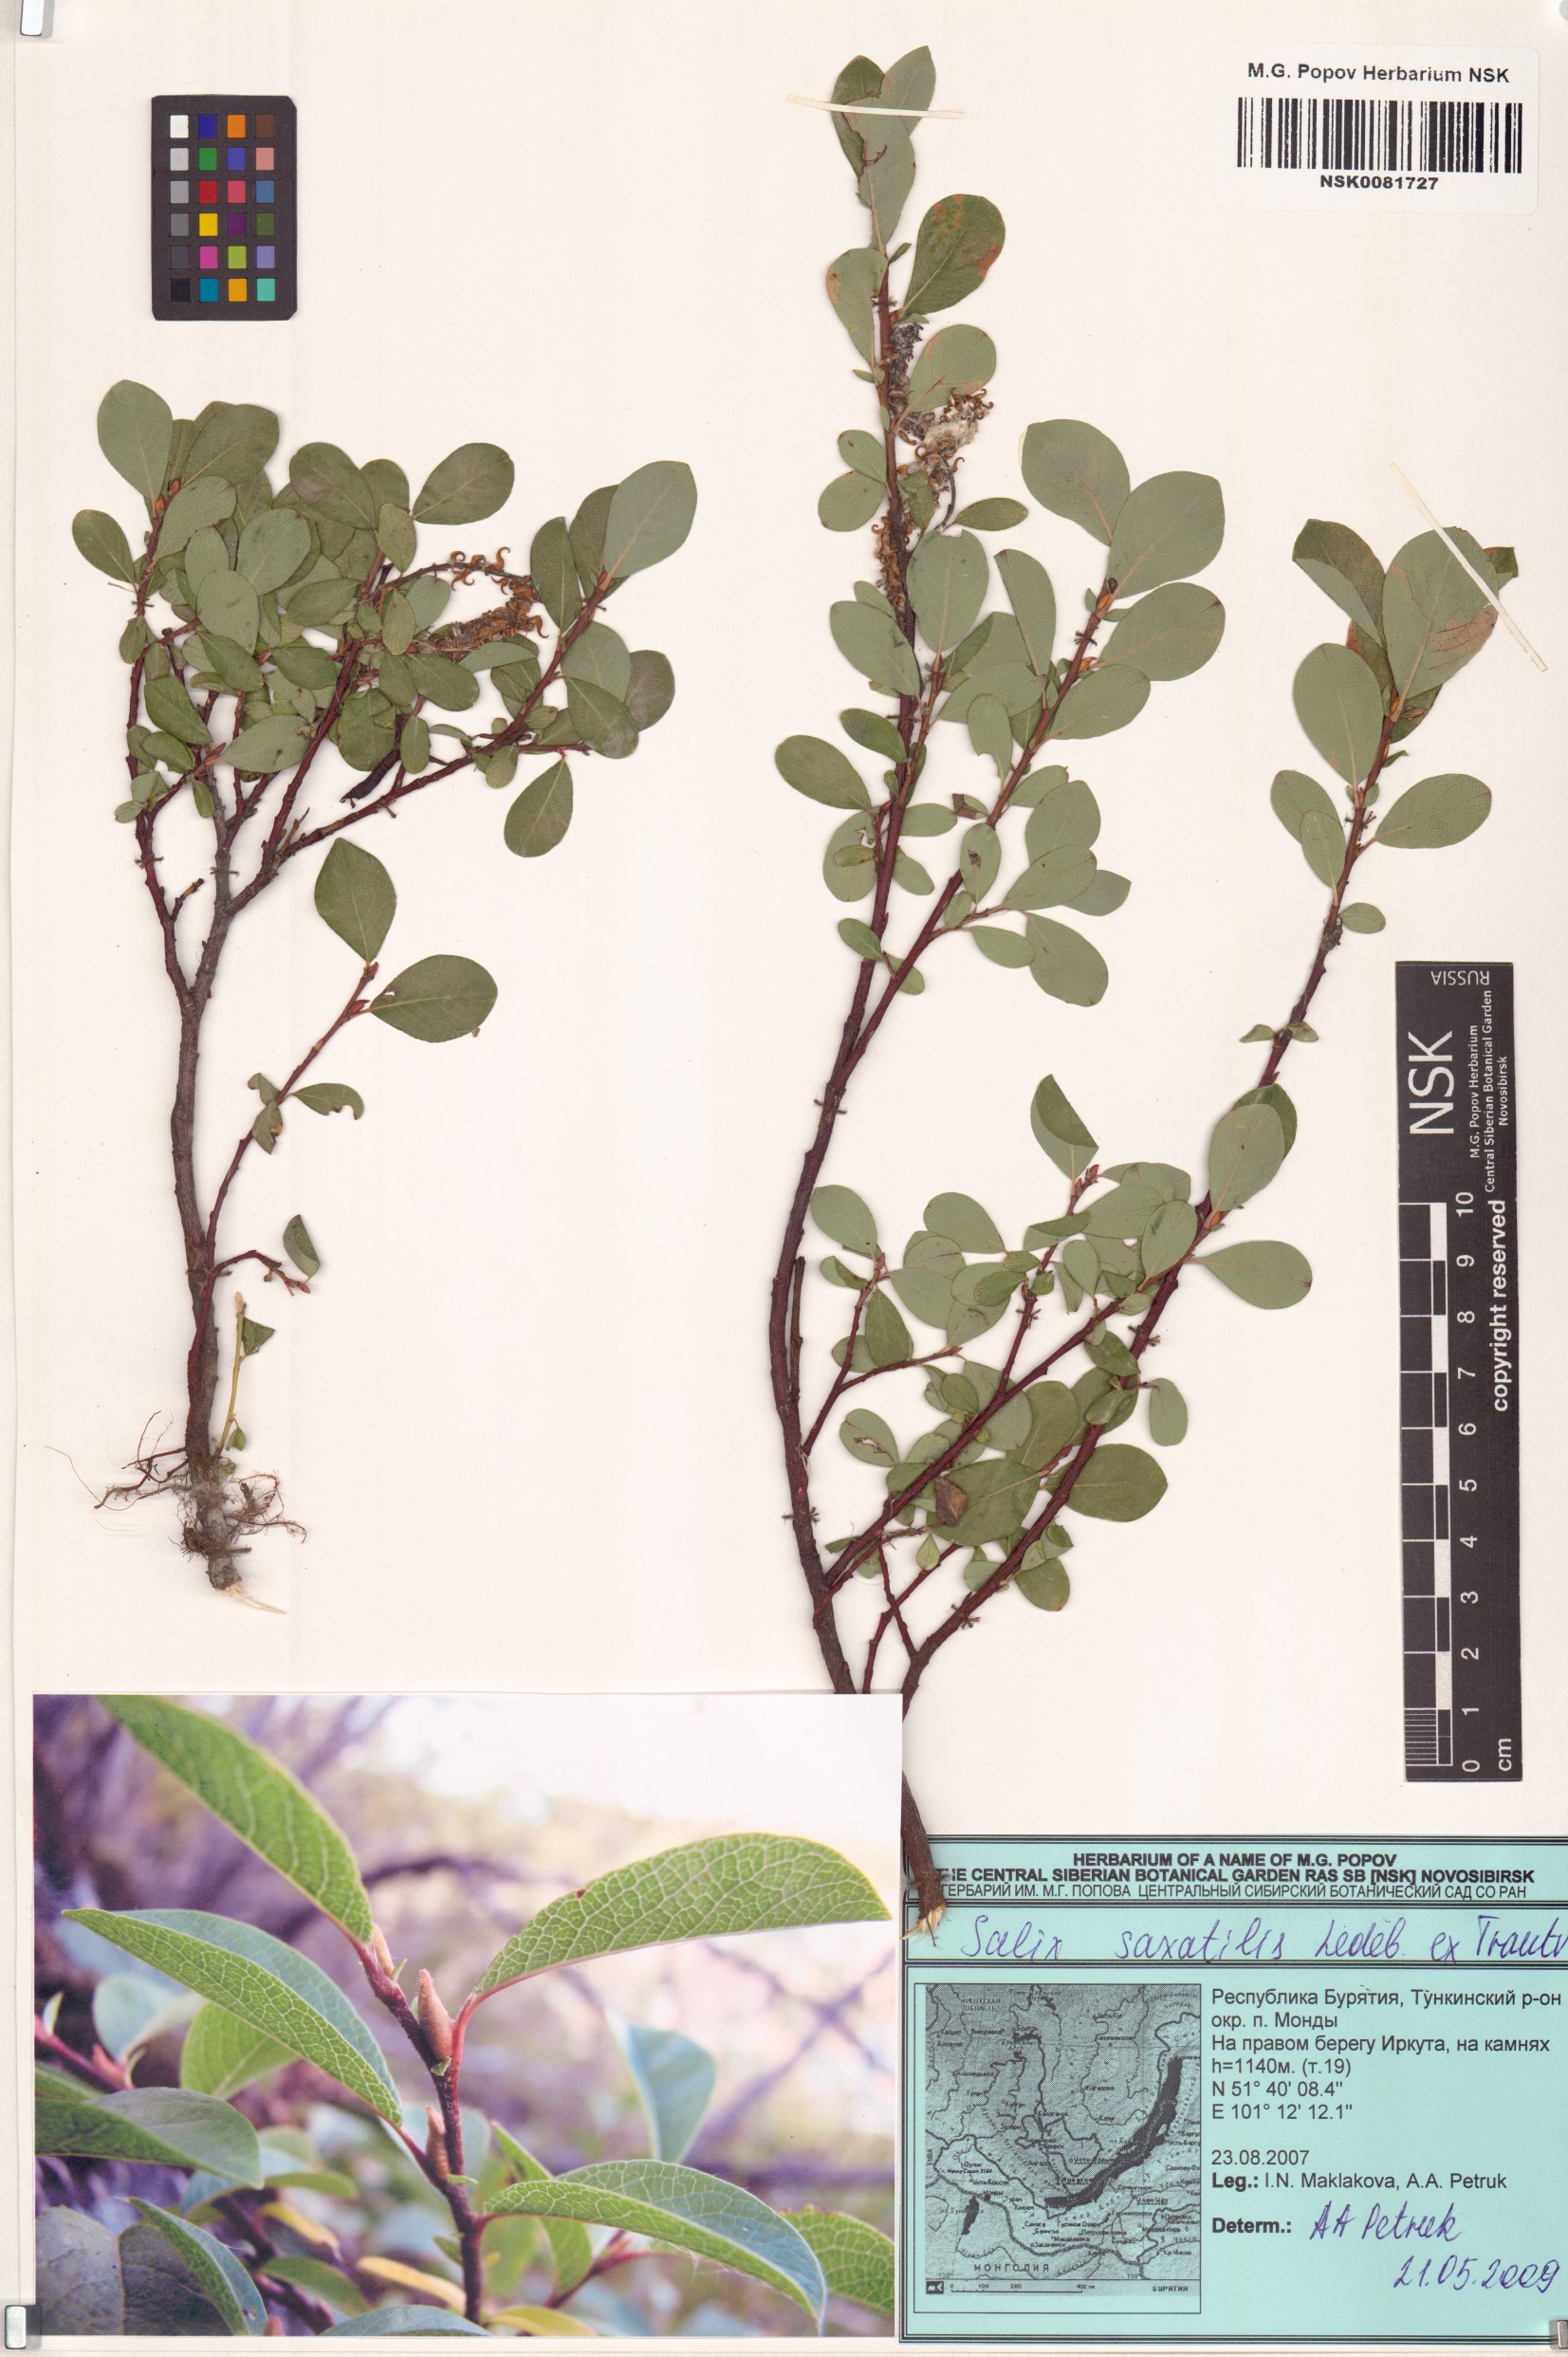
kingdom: Plantae
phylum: Tracheophyta
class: Magnoliopsida
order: Malpighiales
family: Salicaceae
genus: Salix
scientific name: Salix saxatilis
